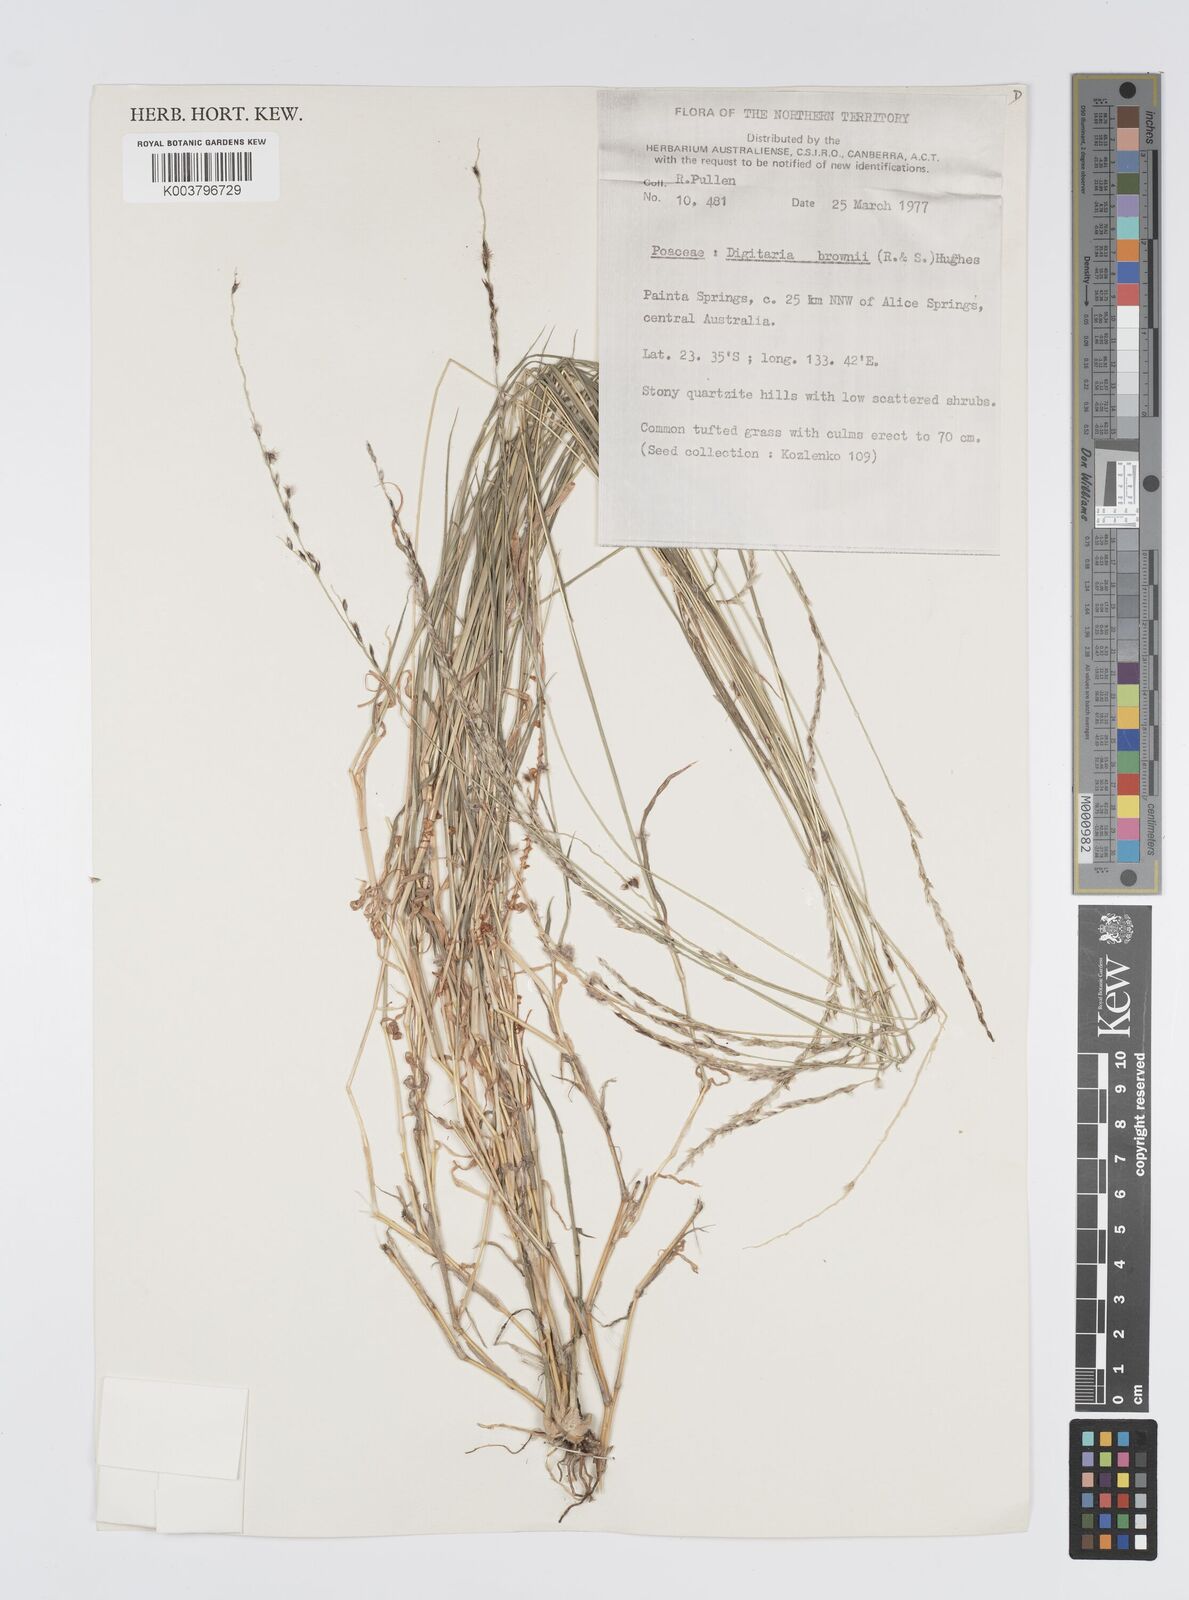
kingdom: Plantae
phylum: Tracheophyta
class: Liliopsida
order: Poales
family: Poaceae
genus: Digitaria
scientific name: Digitaria brownii
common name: Cotton grass
